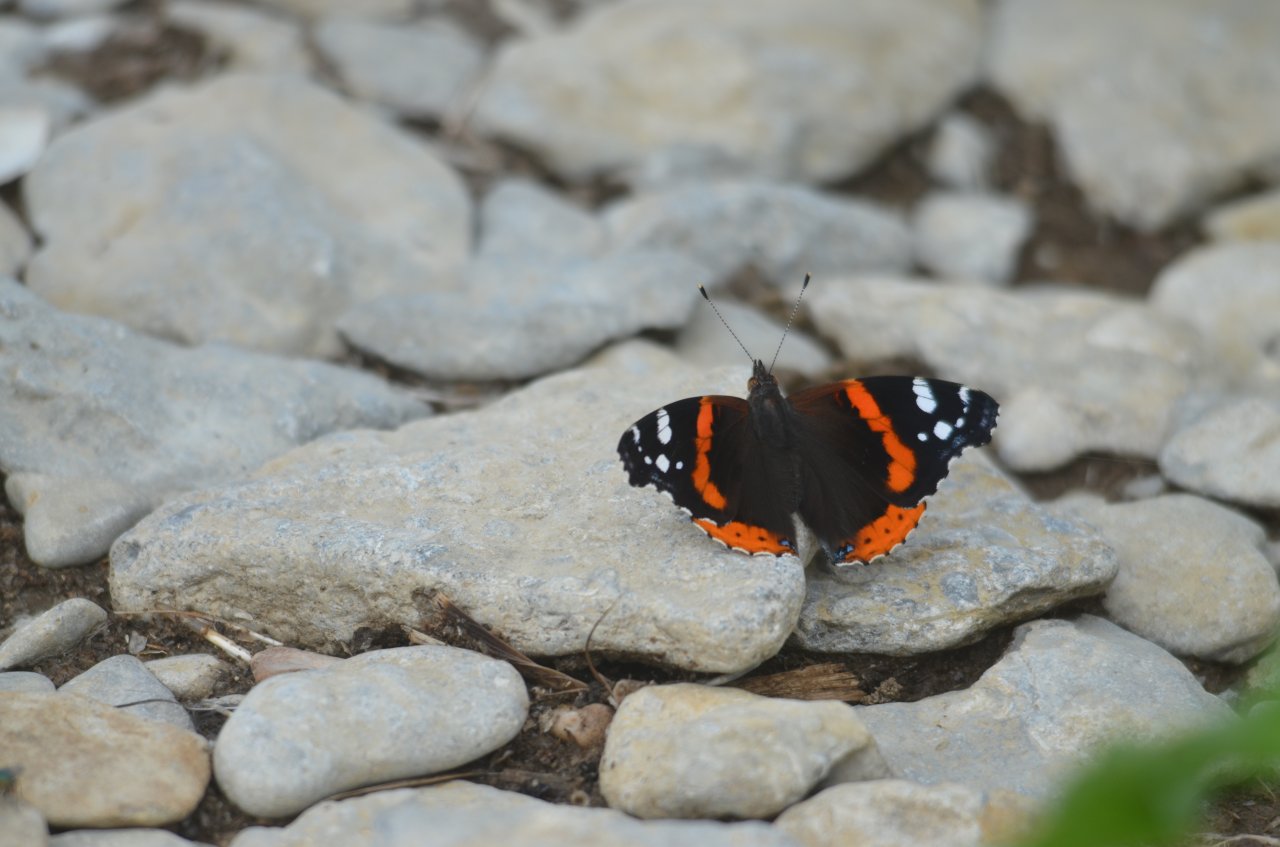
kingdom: Animalia
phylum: Arthropoda
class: Insecta
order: Lepidoptera
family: Nymphalidae
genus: Vanessa
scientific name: Vanessa atalanta
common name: Red Admiral
